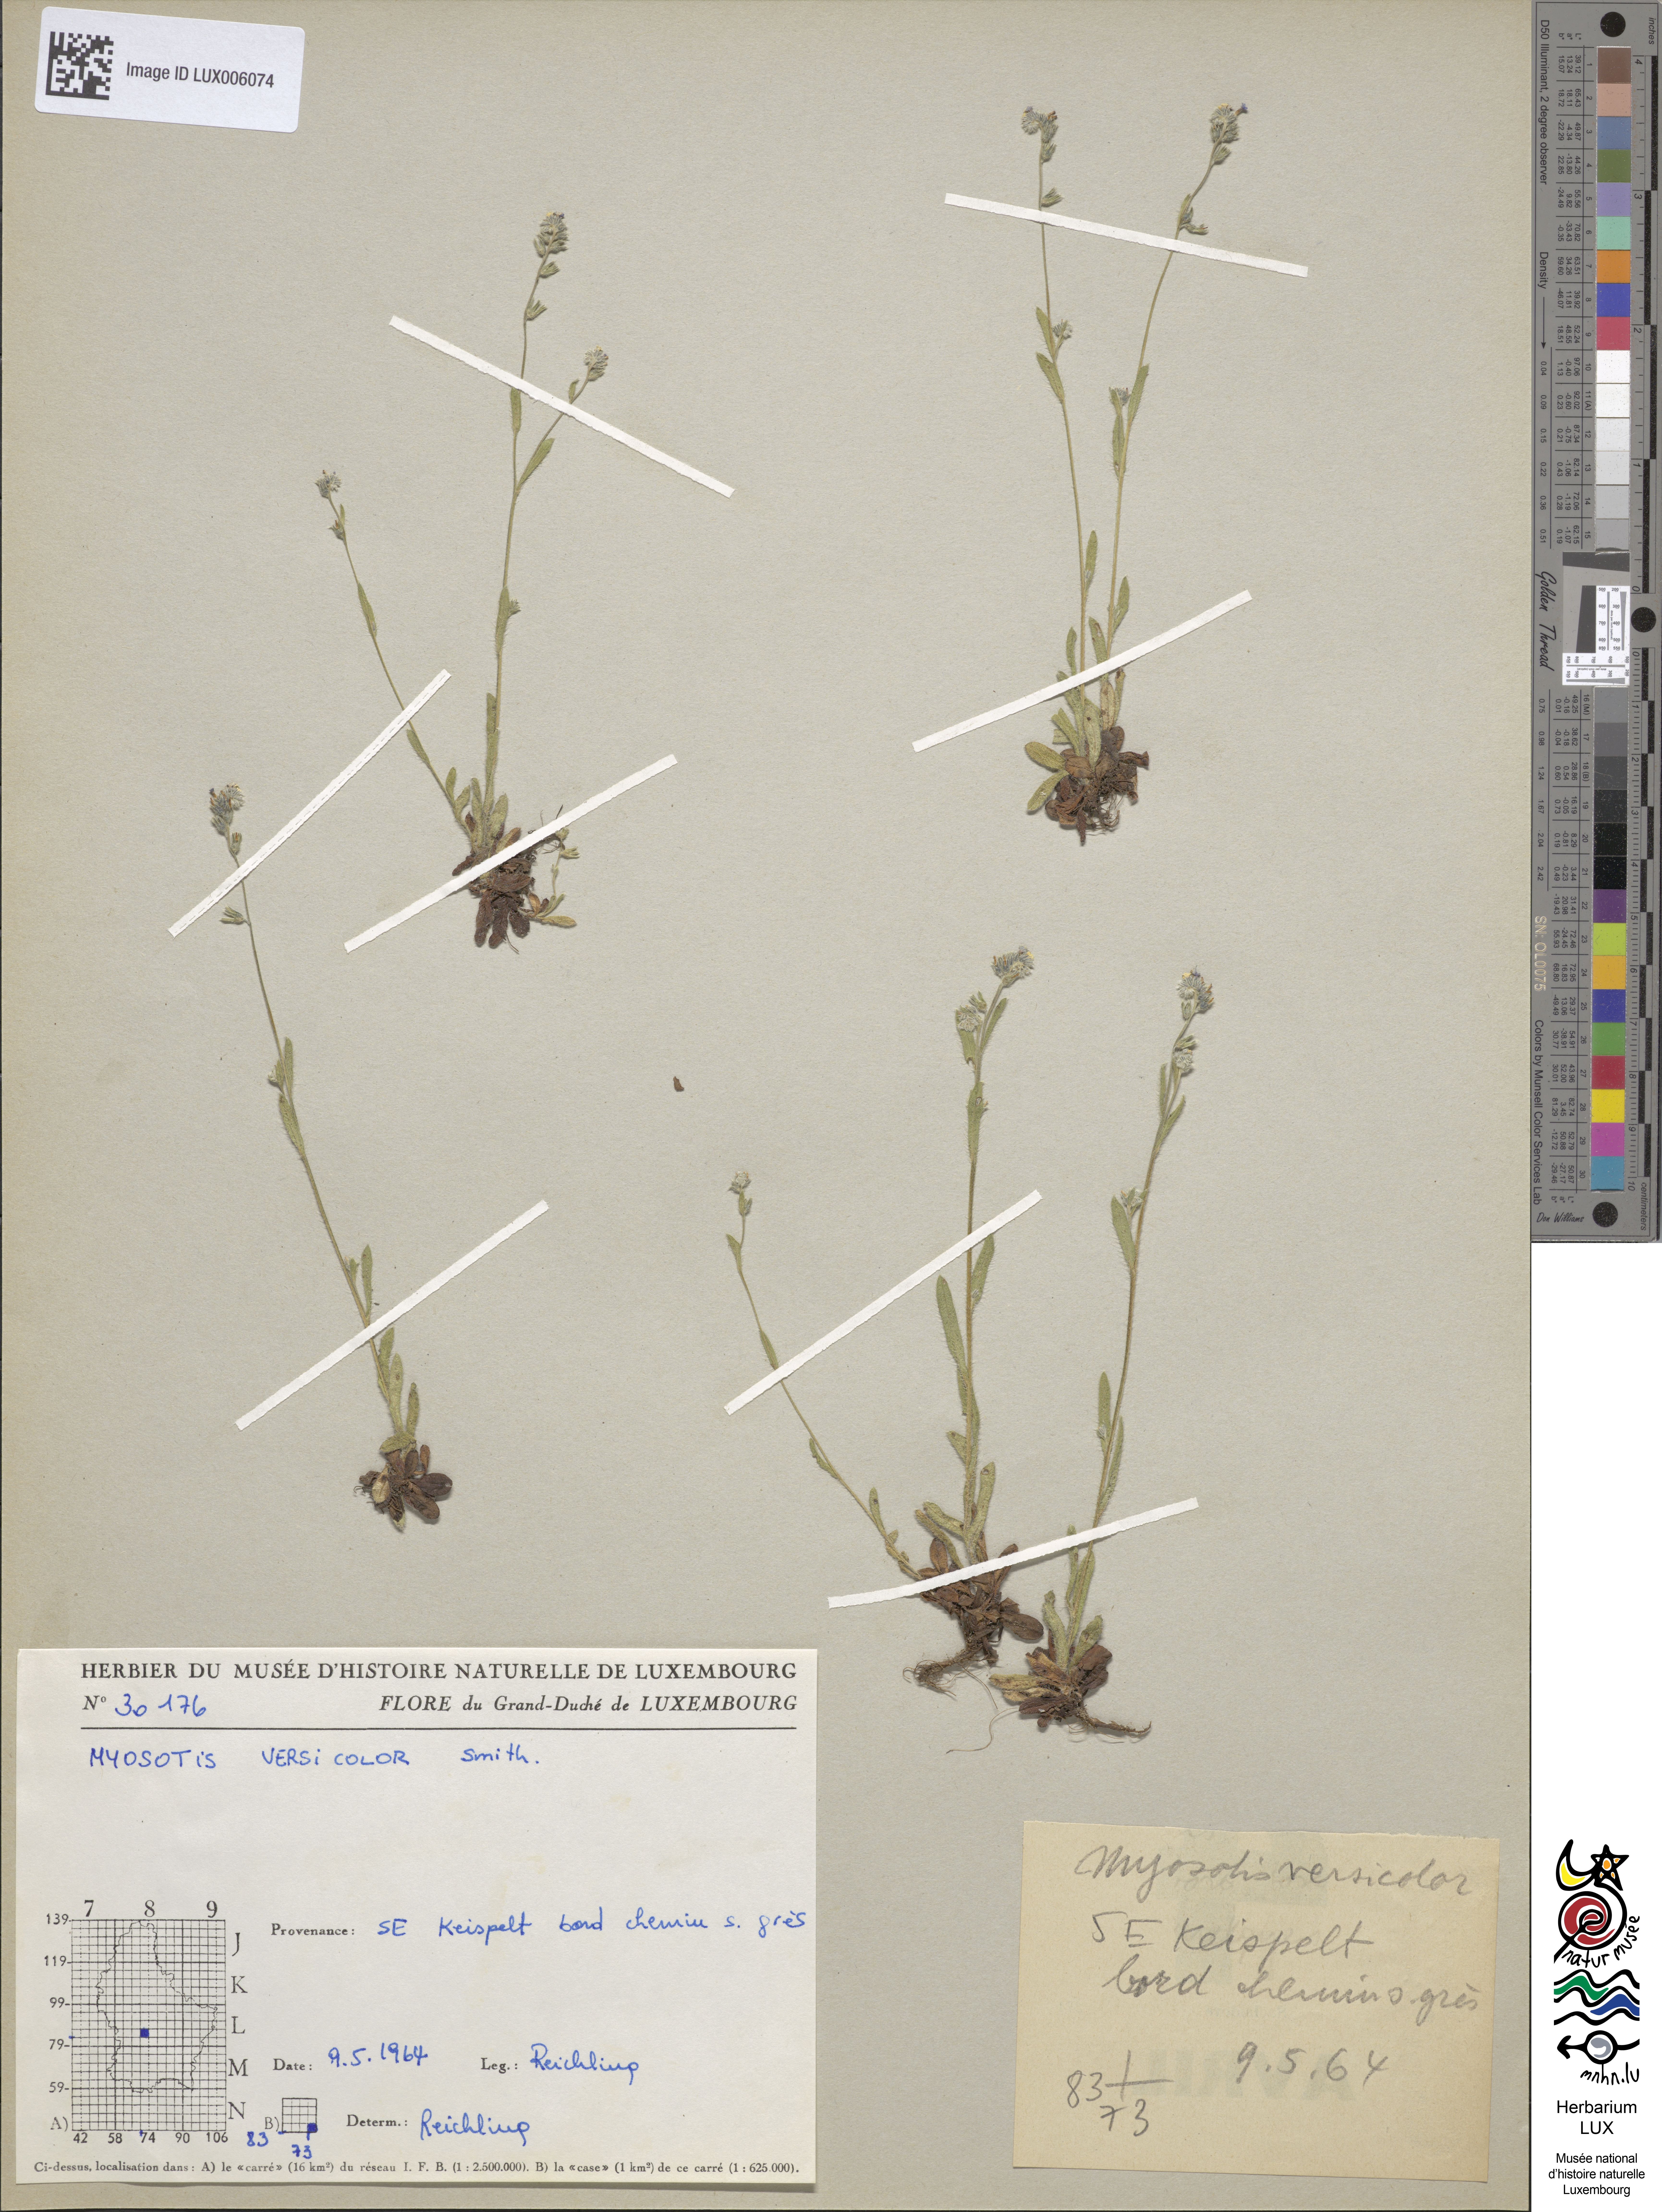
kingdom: Plantae
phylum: Tracheophyta
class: Magnoliopsida
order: Boraginales
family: Boraginaceae
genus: Myosotis
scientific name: Myosotis discolor
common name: Changing forget-me-not
